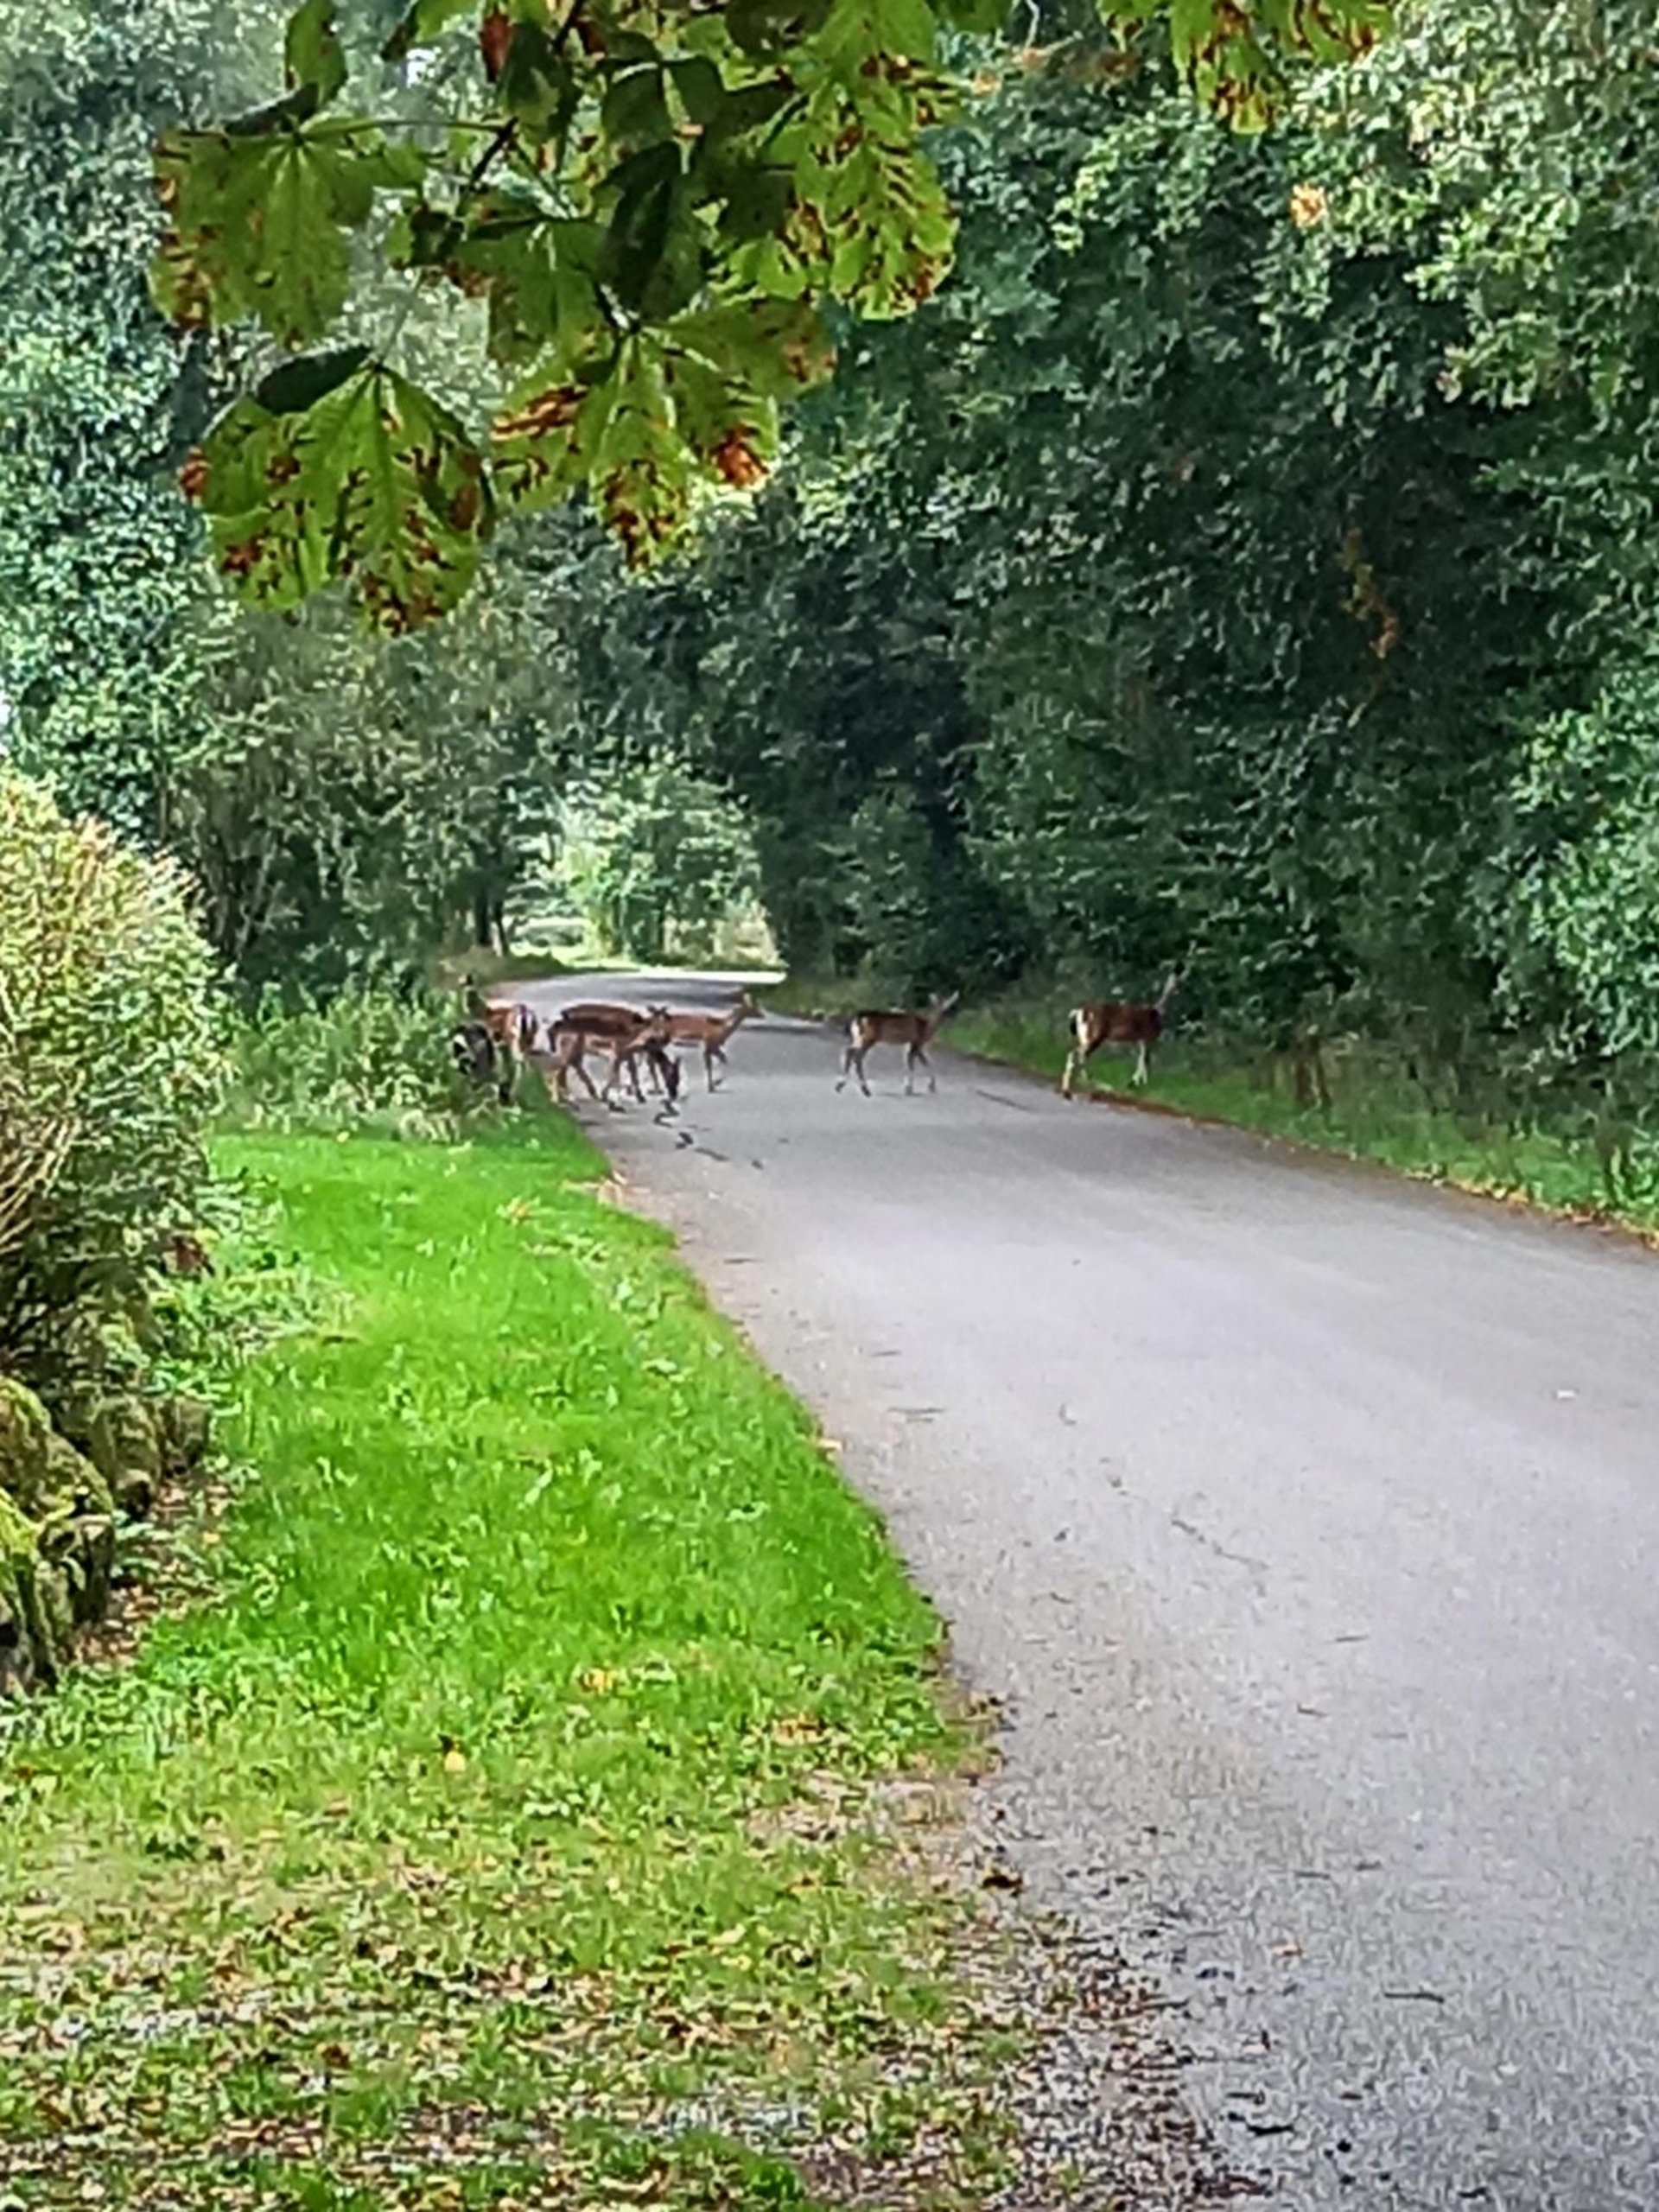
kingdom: Animalia
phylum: Chordata
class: Mammalia
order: Artiodactyla
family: Cervidae
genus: Dama
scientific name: Dama dama
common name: Dådyr
